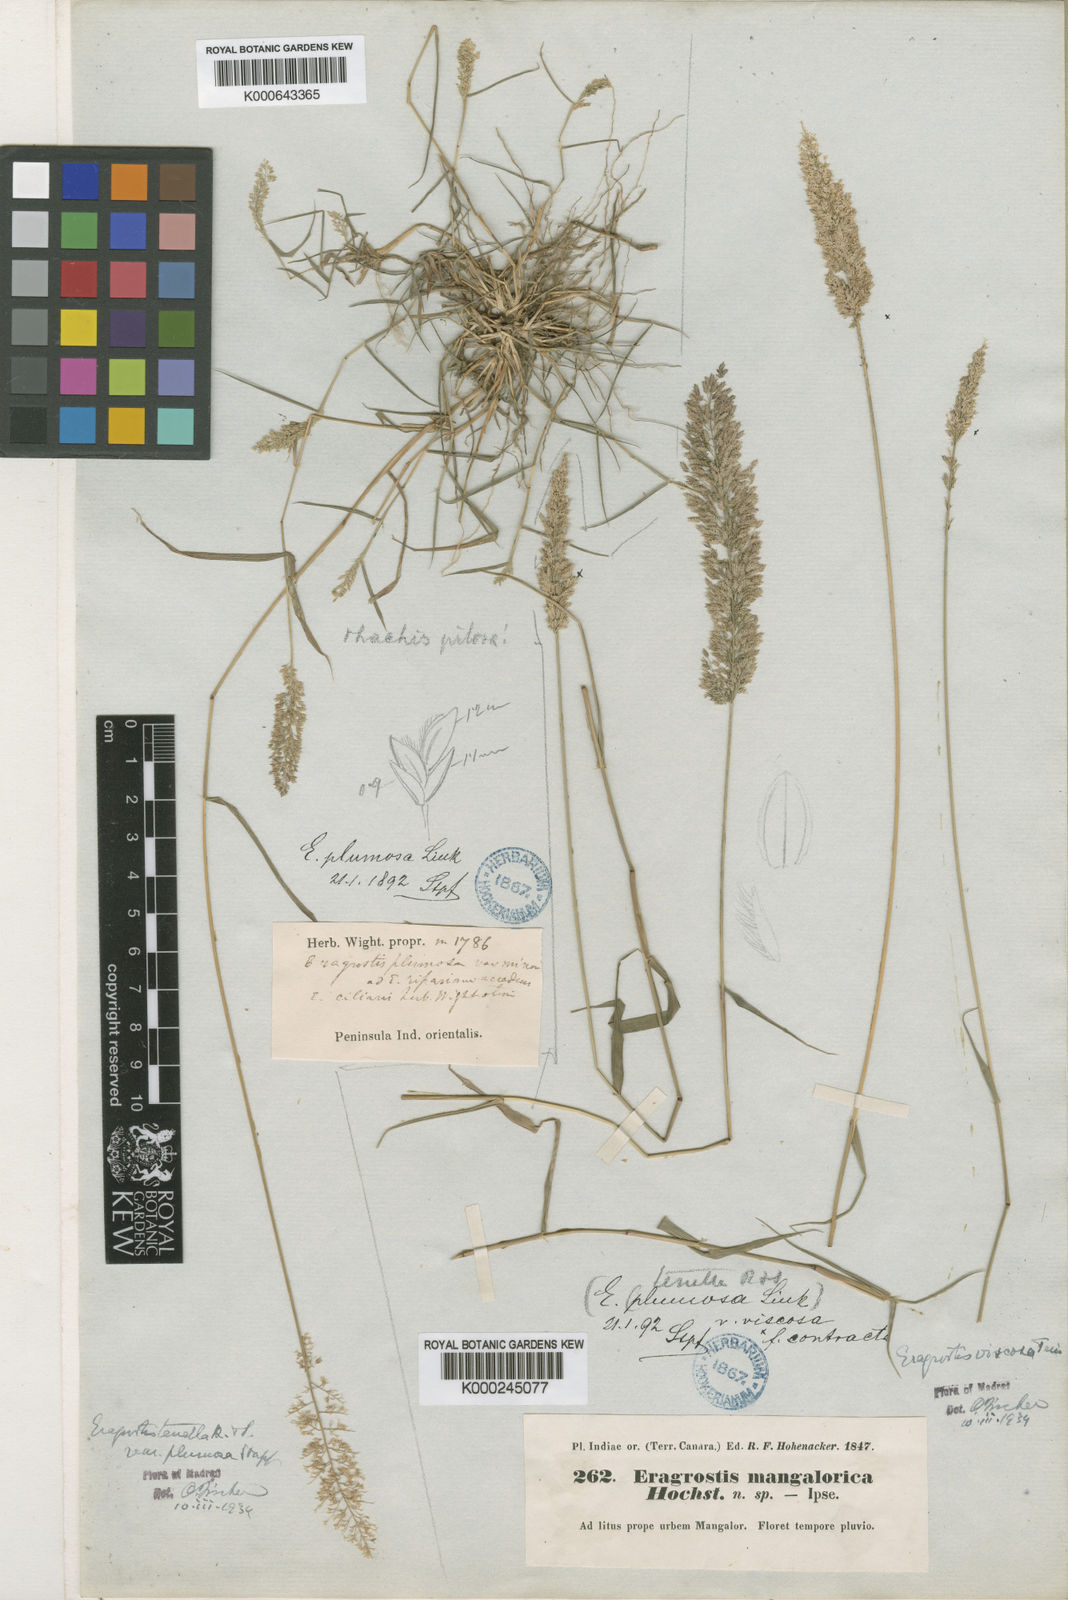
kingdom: Plantae
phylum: Tracheophyta
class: Liliopsida
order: Poales
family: Poaceae
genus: Eragrostis
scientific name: Eragrostis viscosa
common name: Sticky love grass
